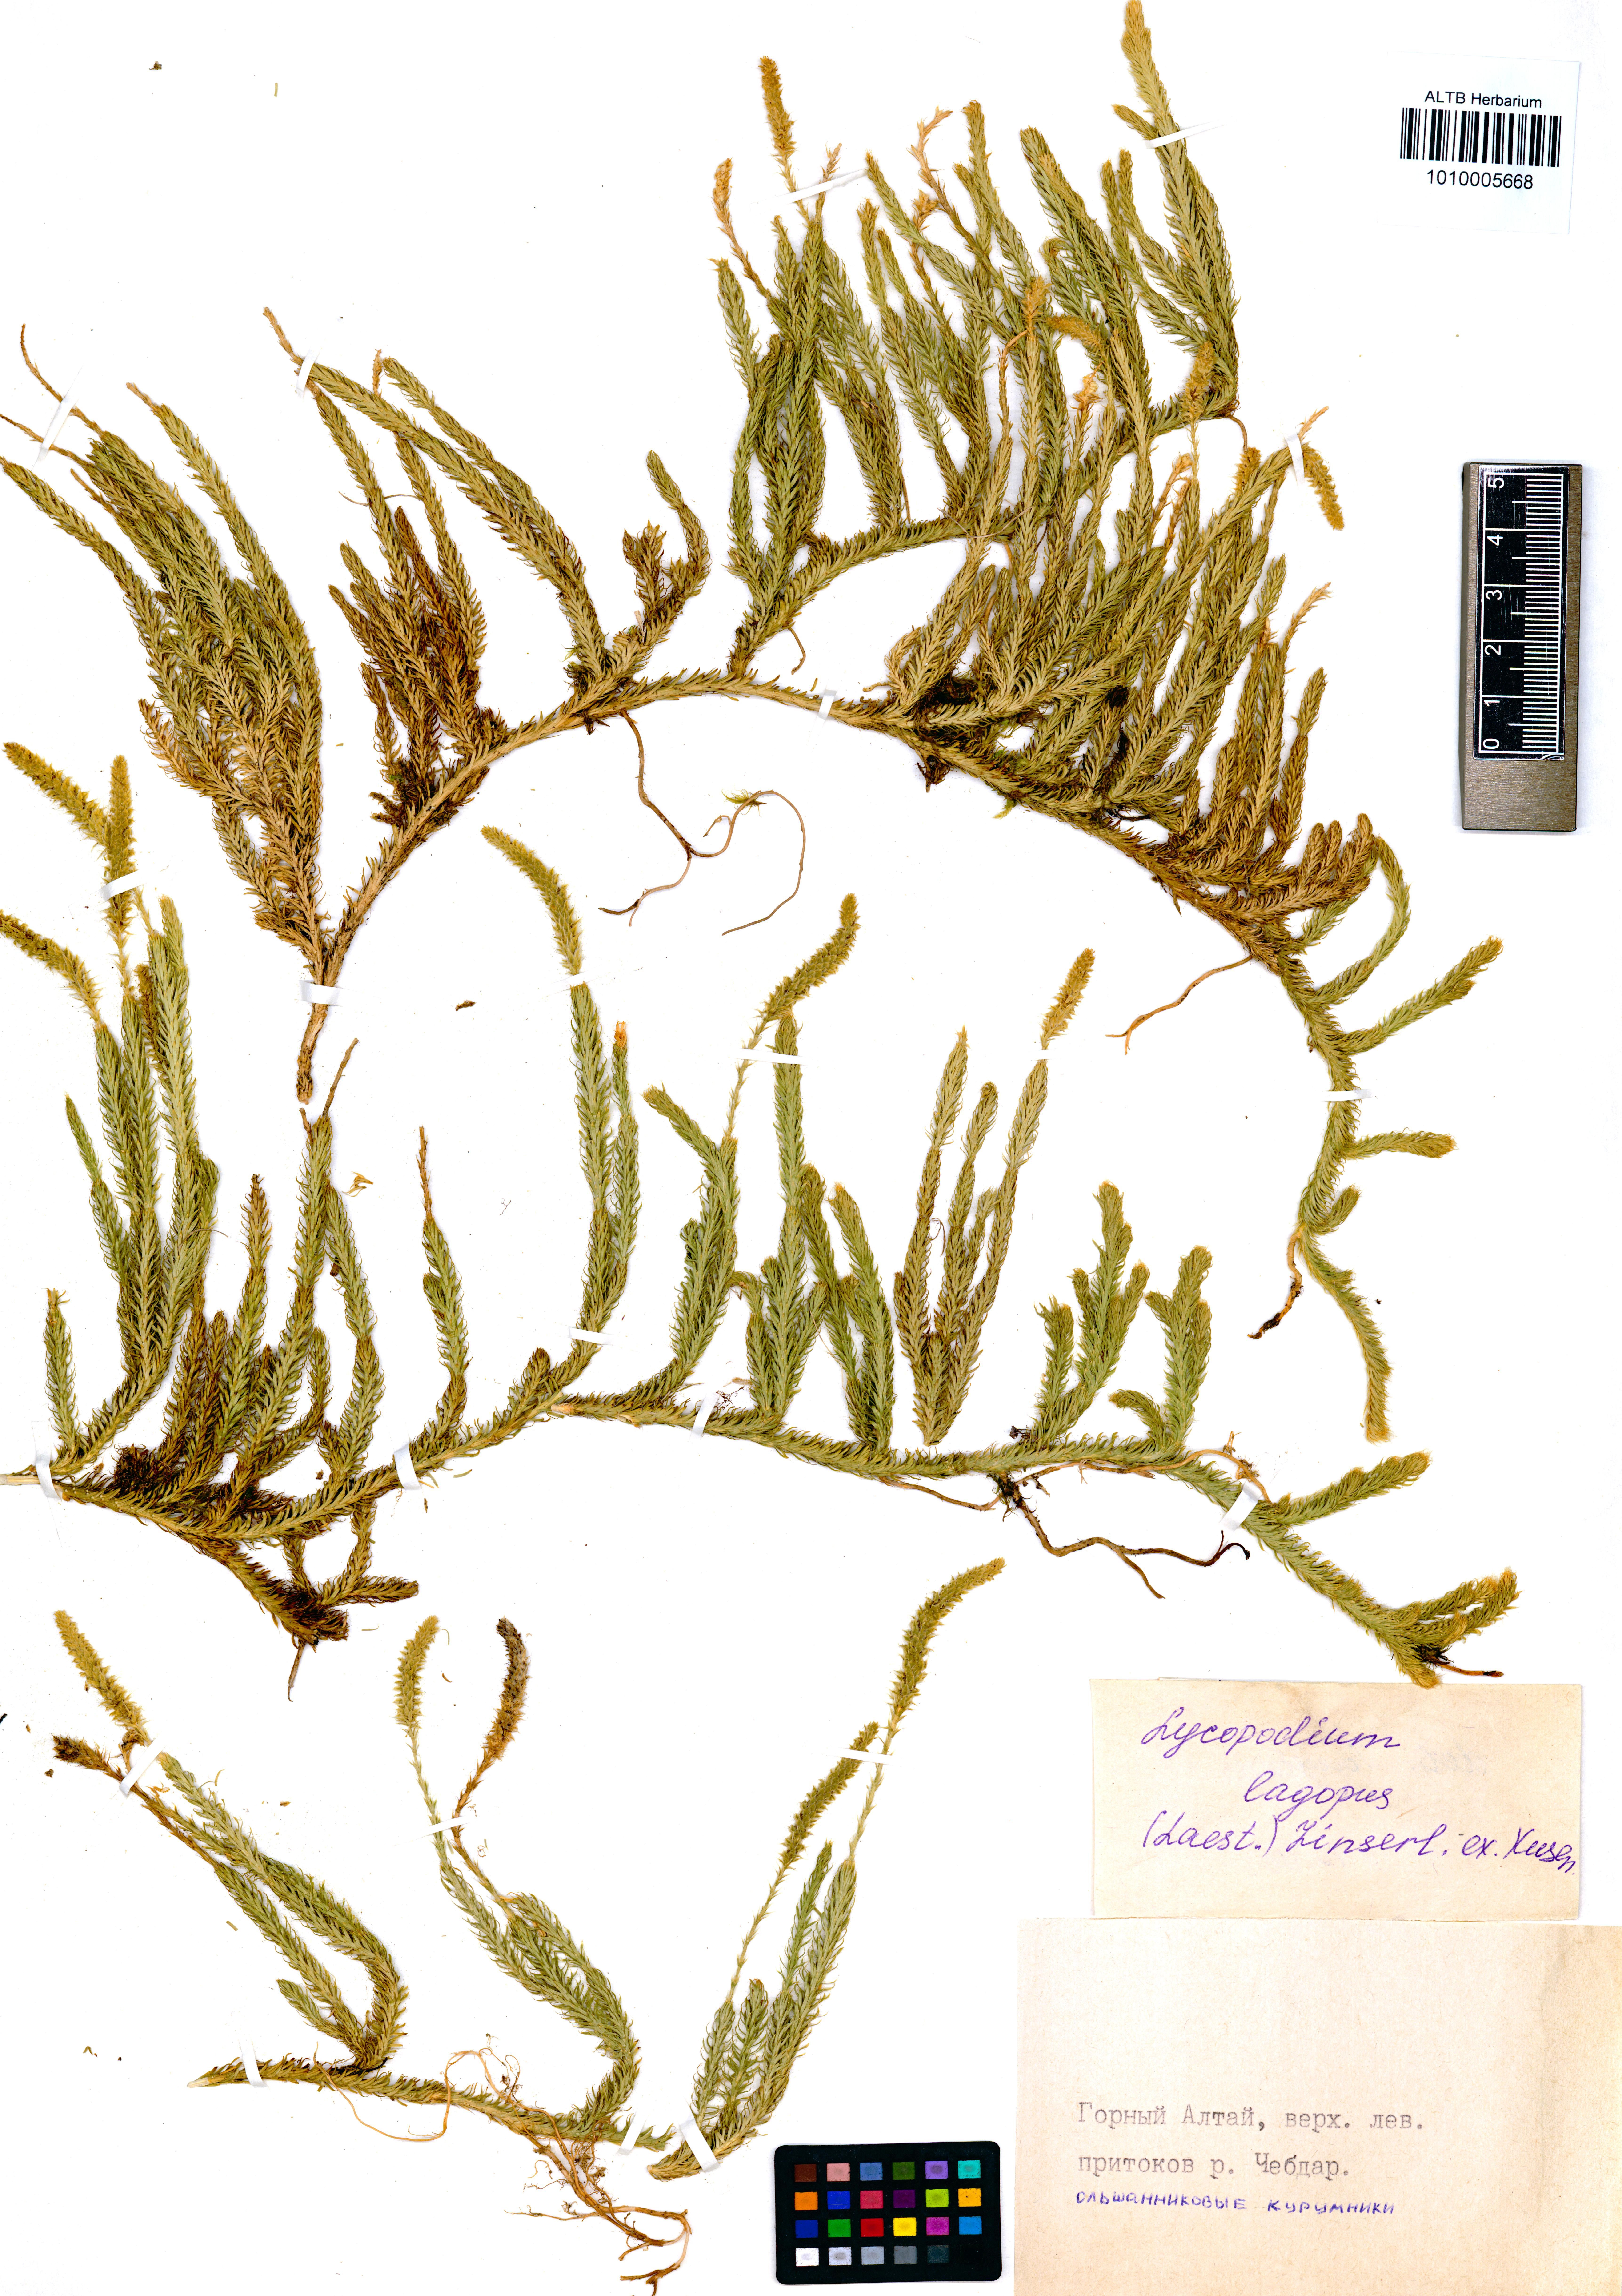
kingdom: Plantae
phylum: Tracheophyta
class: Lycopodiopsida
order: Lycopodiales
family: Lycopodiaceae
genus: Lycopodium
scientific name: Lycopodium lagopus
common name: One-cone clubmoss
